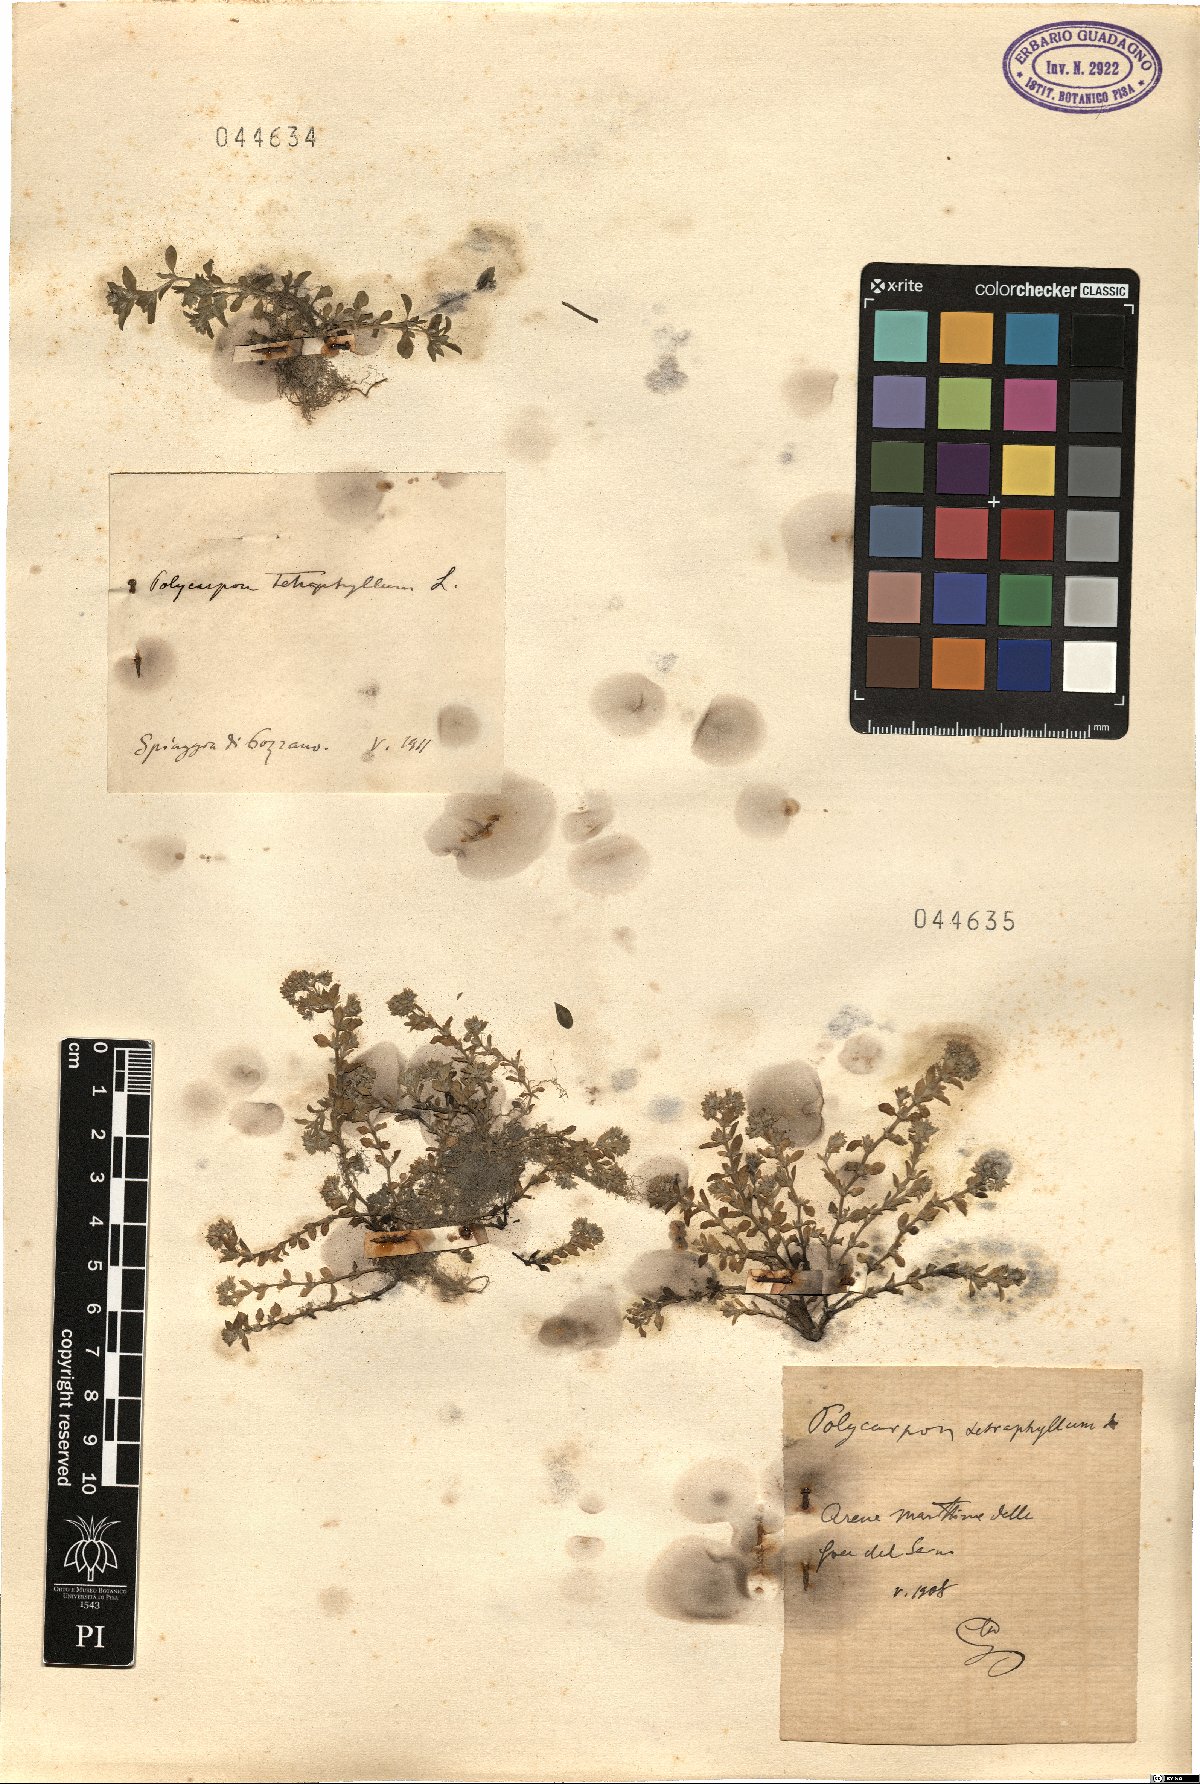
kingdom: Plantae
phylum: Tracheophyta
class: Magnoliopsida
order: Caryophyllales
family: Caryophyllaceae
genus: Polycarpon
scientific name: Polycarpon tetraphyllum
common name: Four-leaved all-seed
